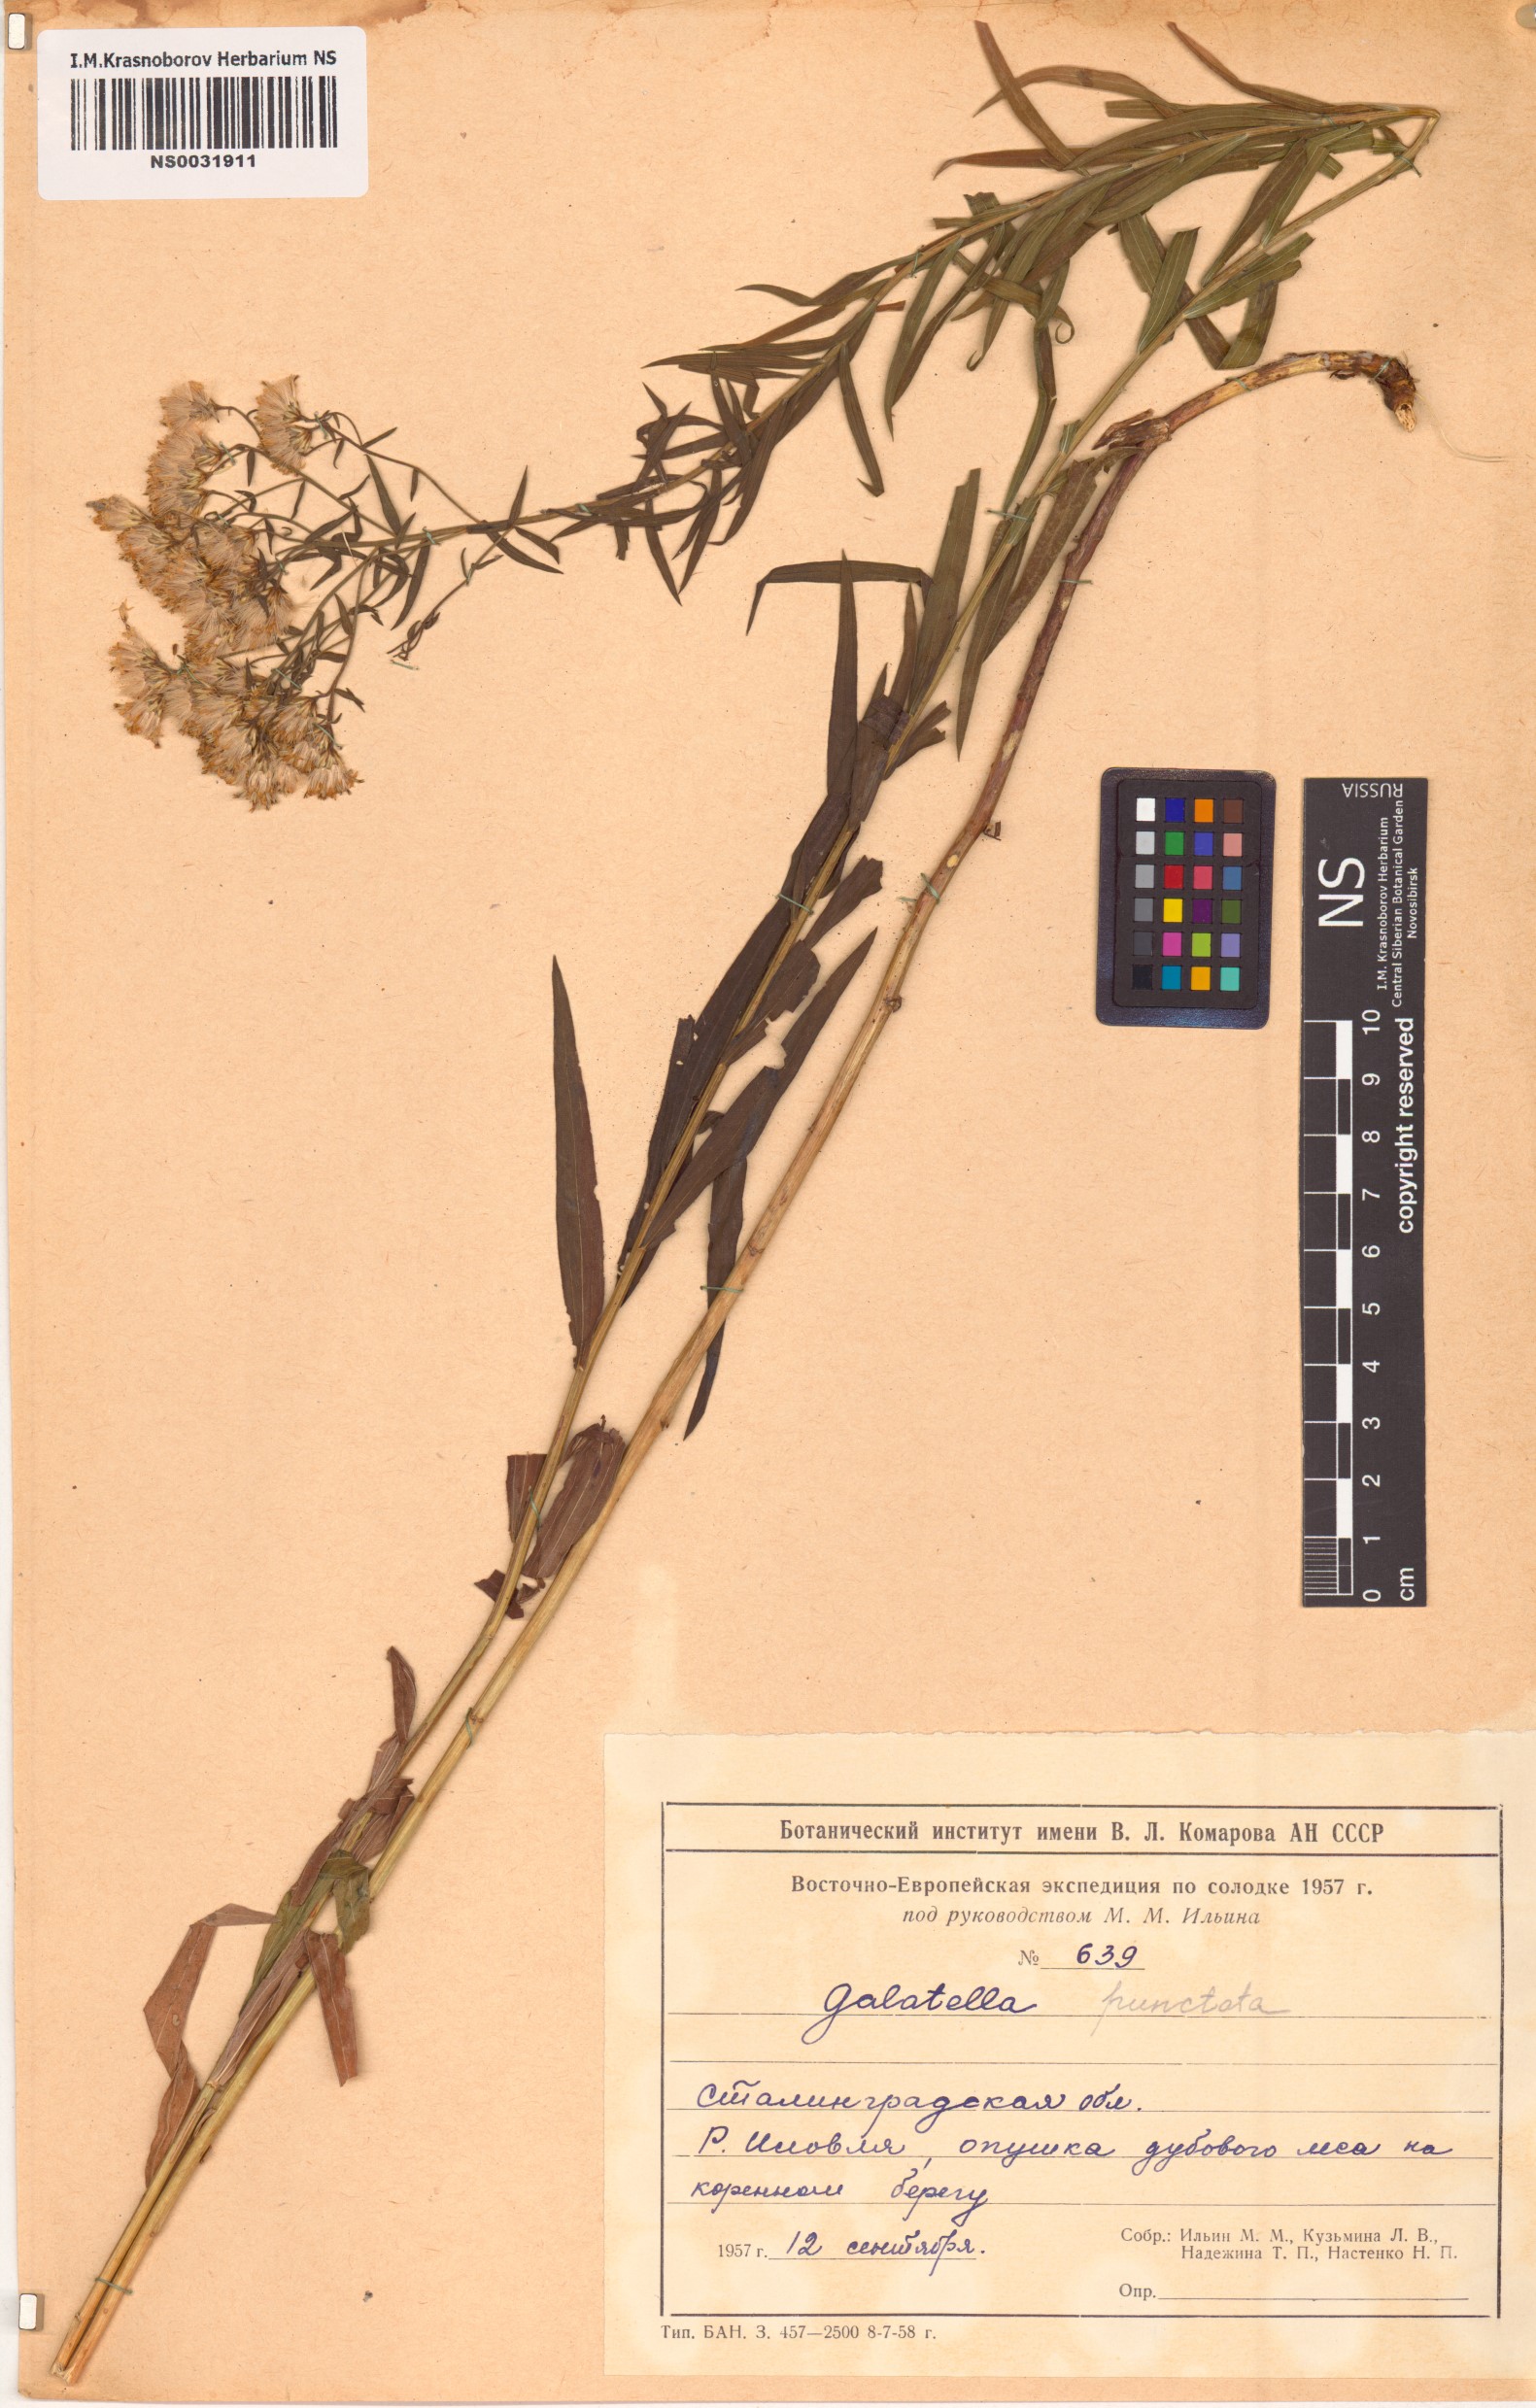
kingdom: Plantae
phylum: Tracheophyta
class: Magnoliopsida
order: Asterales
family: Asteraceae
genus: Galatella
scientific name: Galatella sedifolia
